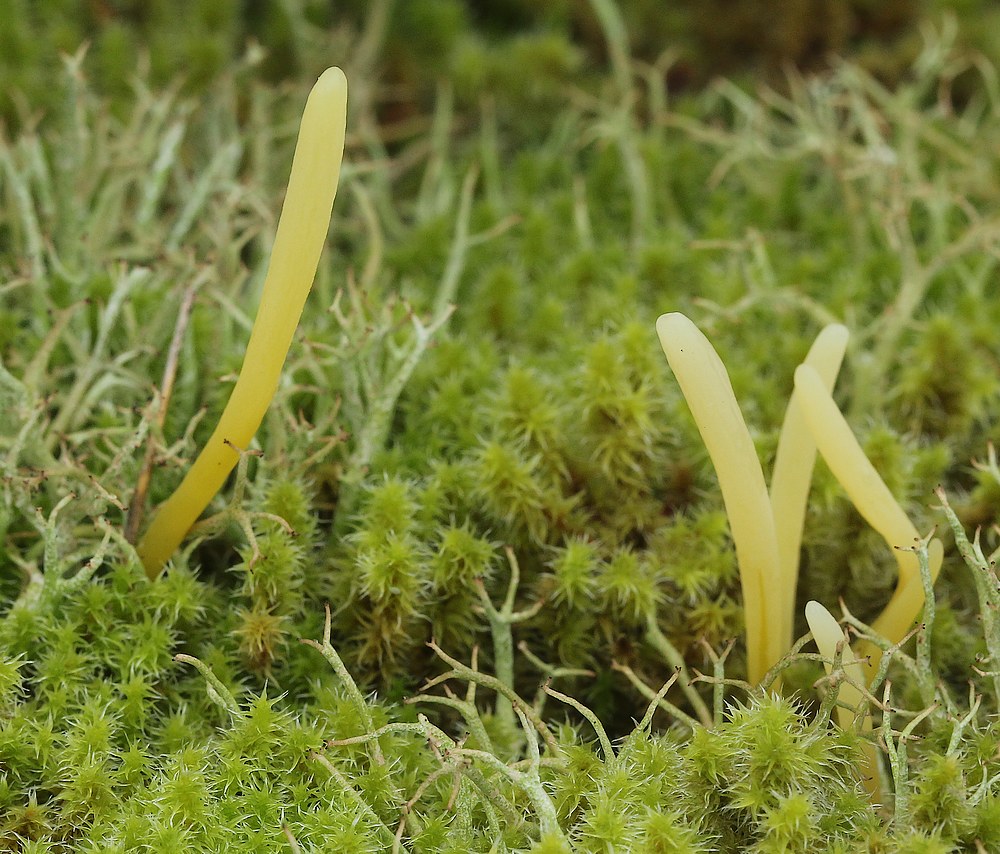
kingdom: Fungi
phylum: Basidiomycota
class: Agaricomycetes
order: Agaricales
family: Clavariaceae
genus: Clavaria
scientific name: Clavaria argillacea
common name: lerfarvet køllesvamp
